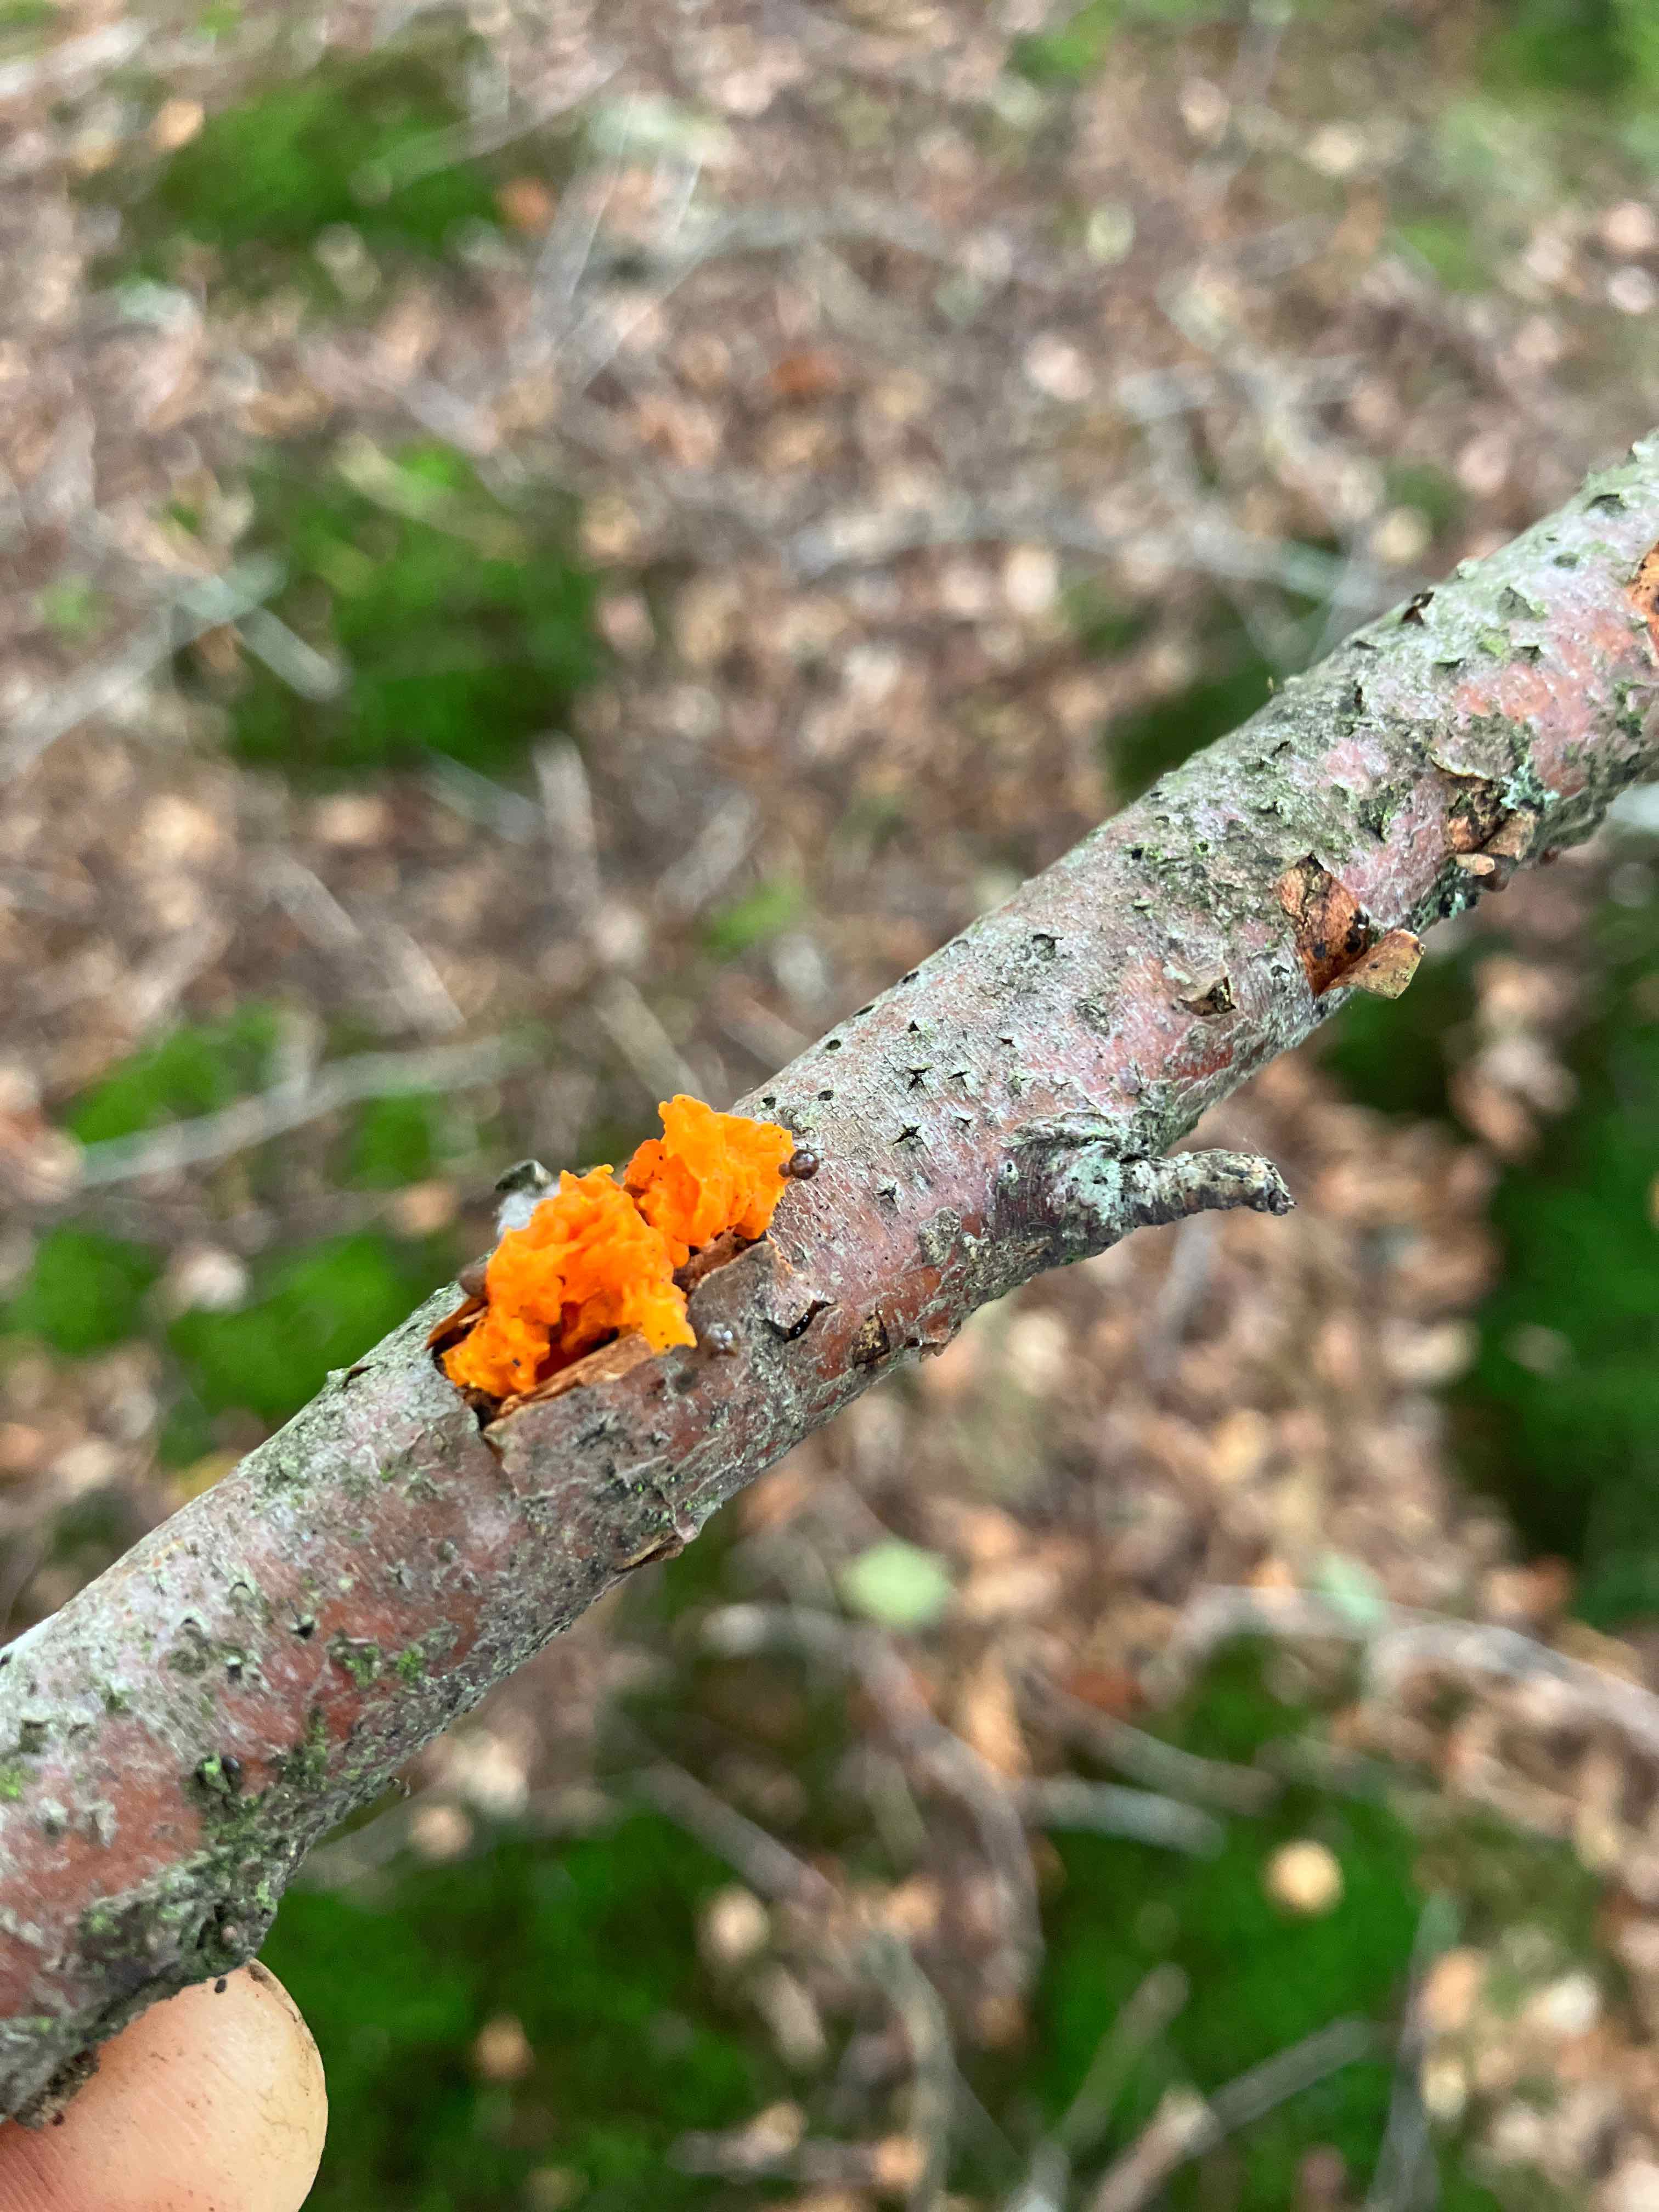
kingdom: Fungi
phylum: Basidiomycota
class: Tremellomycetes
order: Tremellales
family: Tremellaceae
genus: Tremella
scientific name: Tremella mesenterica
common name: gul bævresvamp
